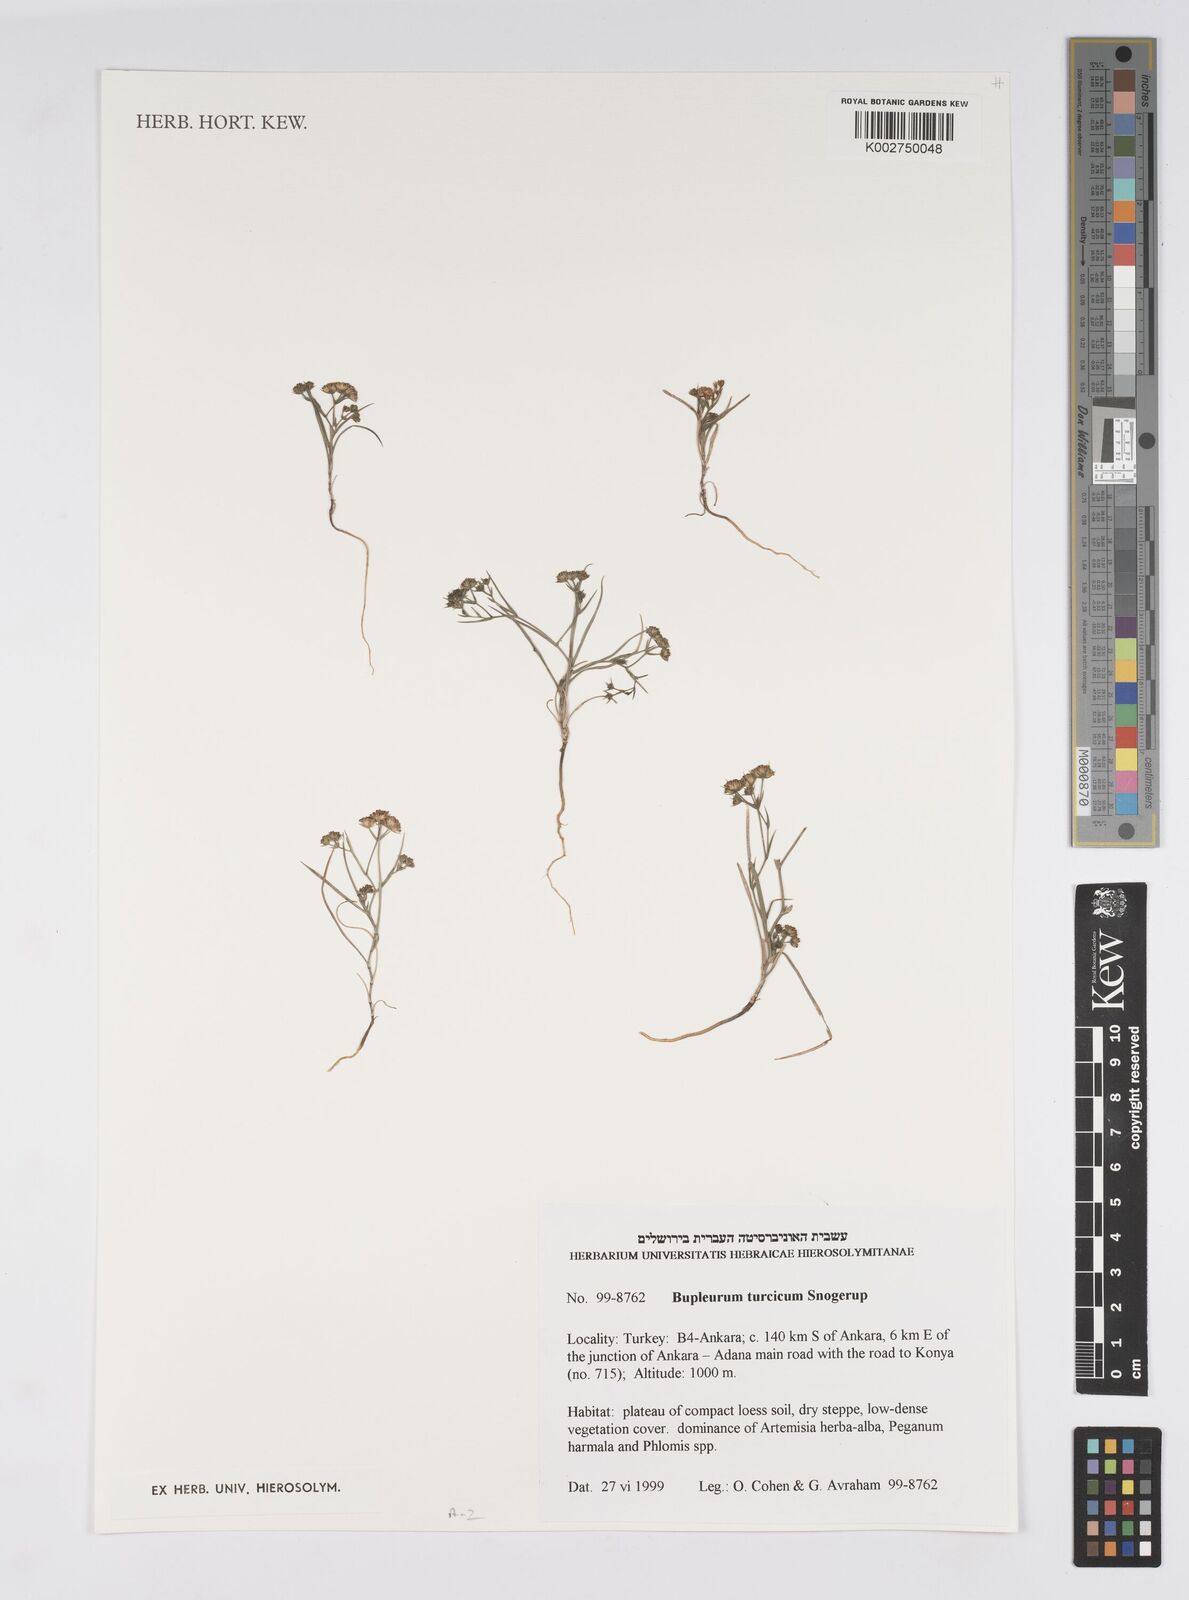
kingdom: Plantae
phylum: Tracheophyta
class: Magnoliopsida
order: Apiales
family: Apiaceae
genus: Bupleurum
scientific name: Bupleurum turcicum
